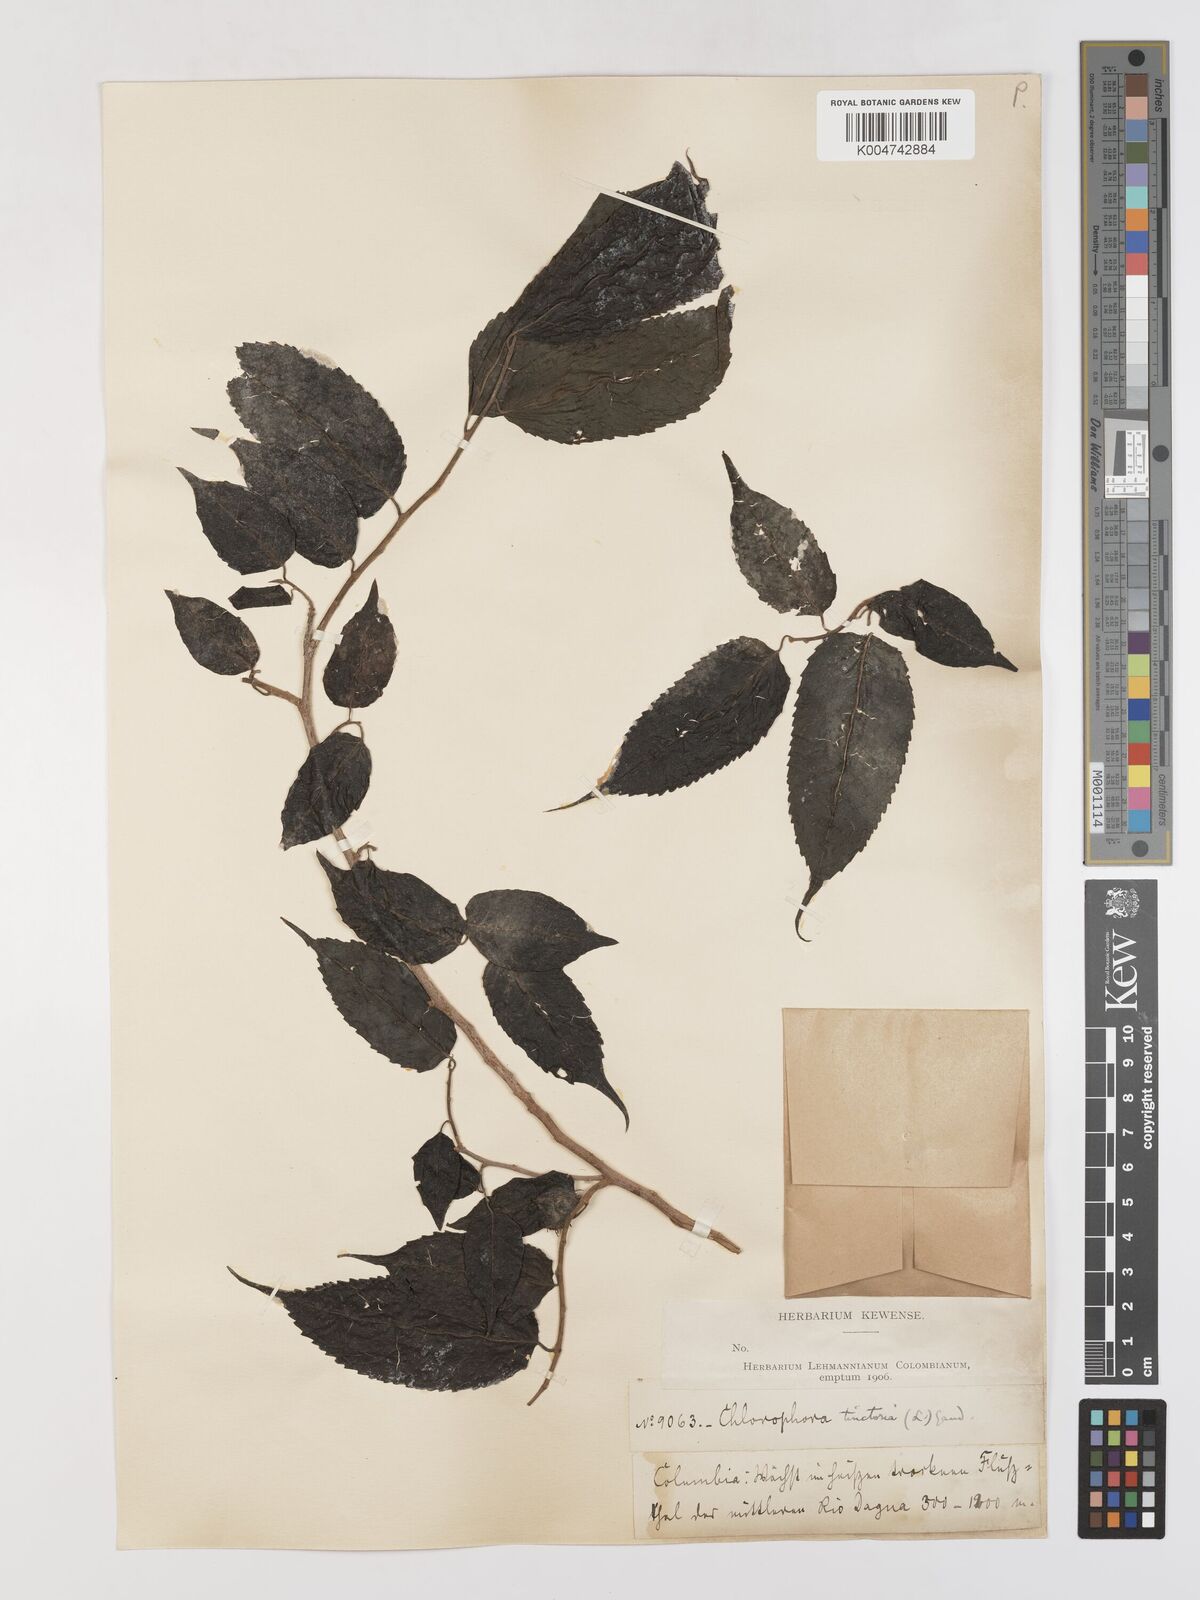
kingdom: Plantae
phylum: Tracheophyta
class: Magnoliopsida
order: Rosales
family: Moraceae
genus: Maclura
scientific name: Maclura tinctoria
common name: Old fustic
